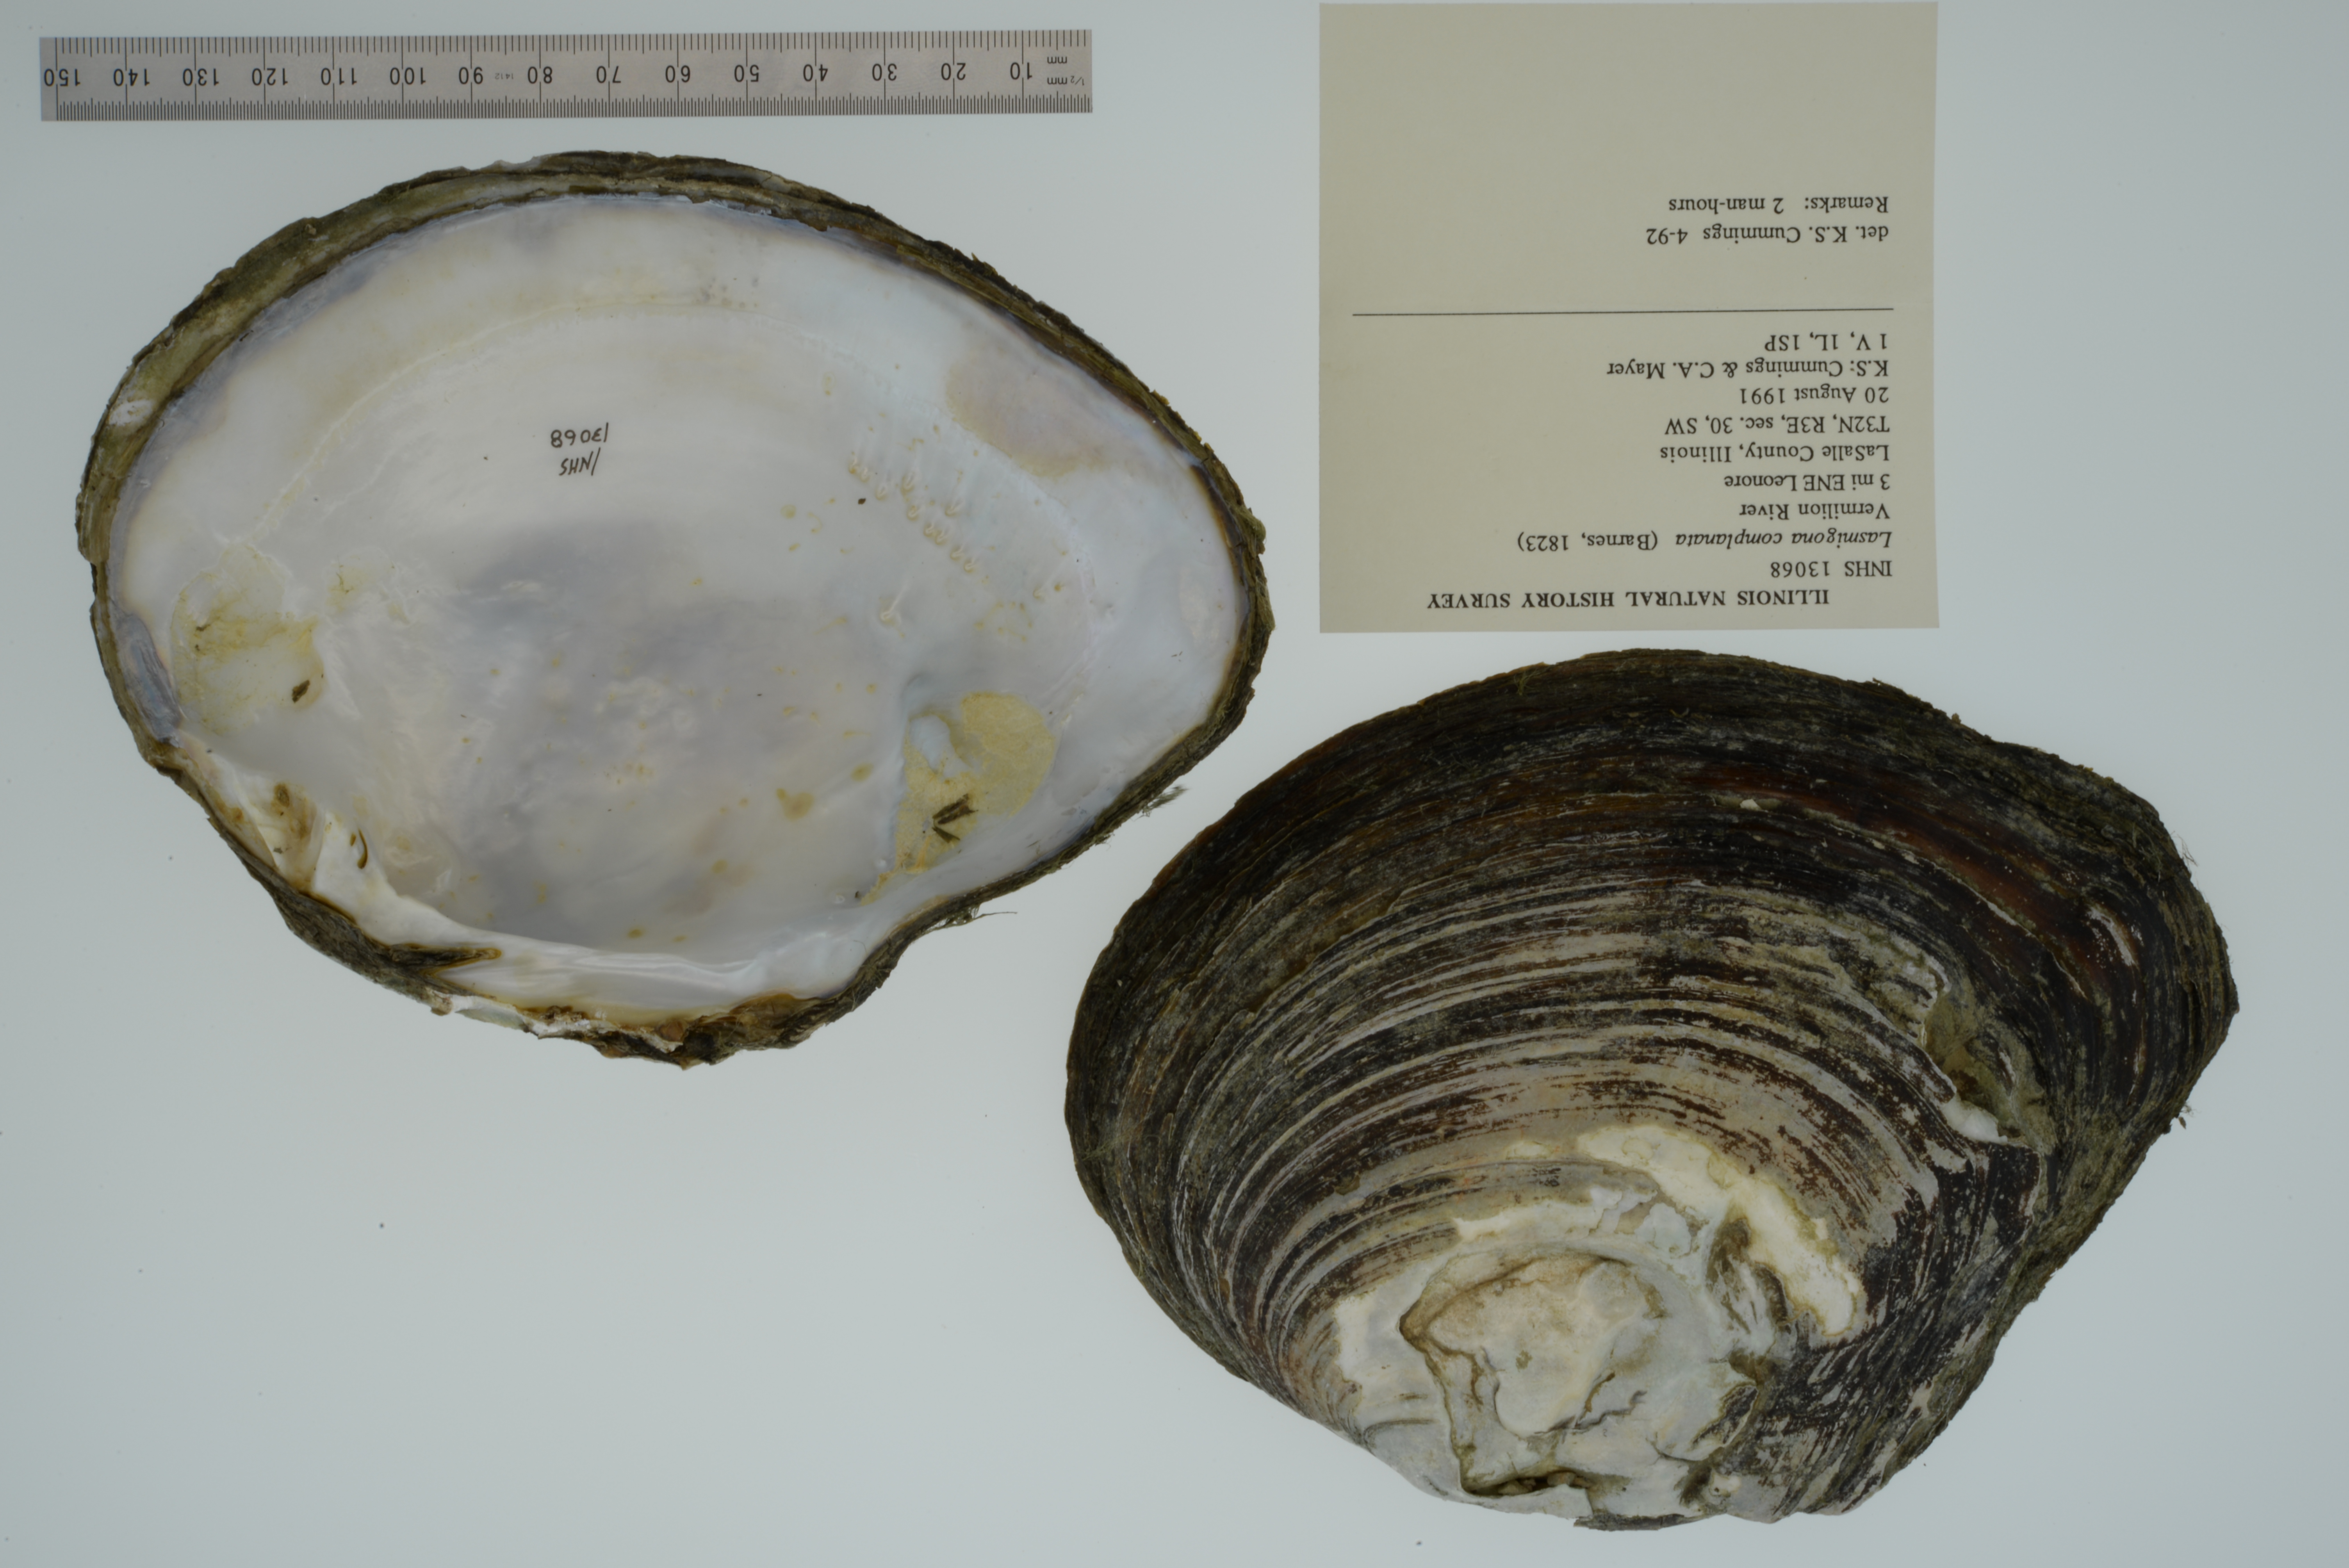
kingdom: Animalia
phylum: Mollusca
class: Bivalvia
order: Unionida
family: Unionidae
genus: Lasmigona
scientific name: Lasmigona complanata
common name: White heelsplitter
